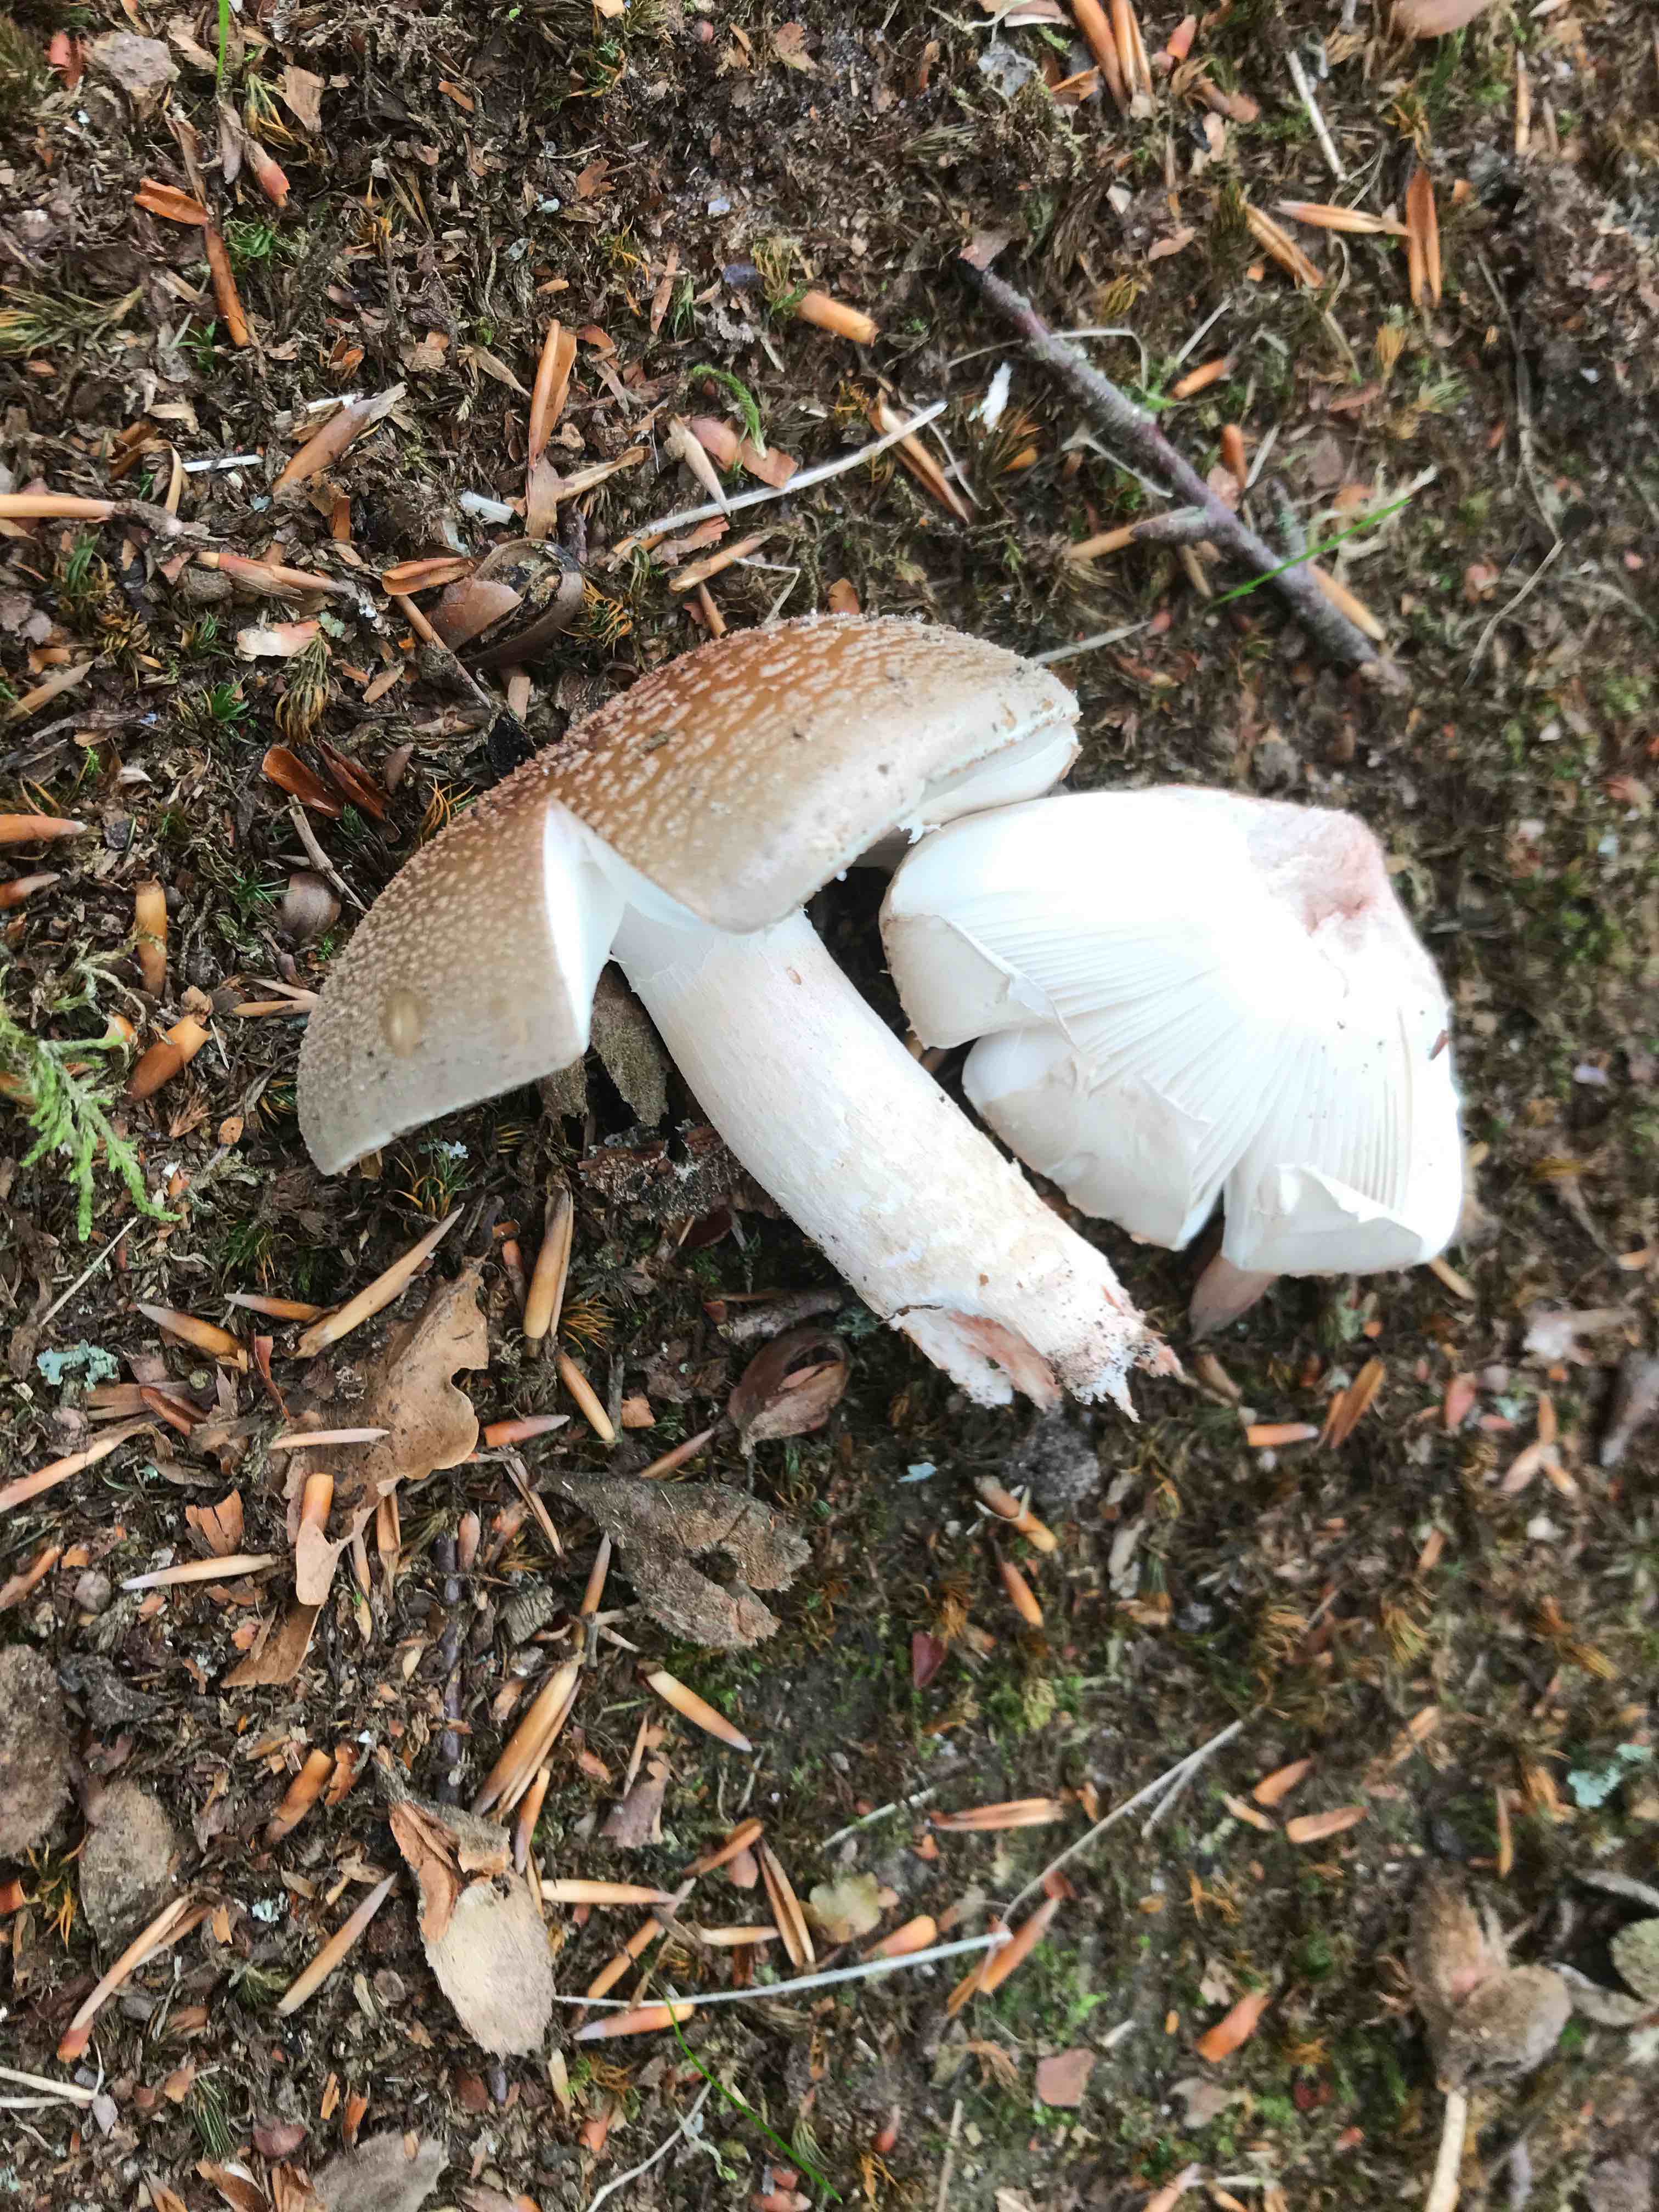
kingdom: Fungi
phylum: Basidiomycota
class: Agaricomycetes
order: Agaricales
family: Amanitaceae
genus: Amanita
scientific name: Amanita rubescens
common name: rødmende fluesvamp
